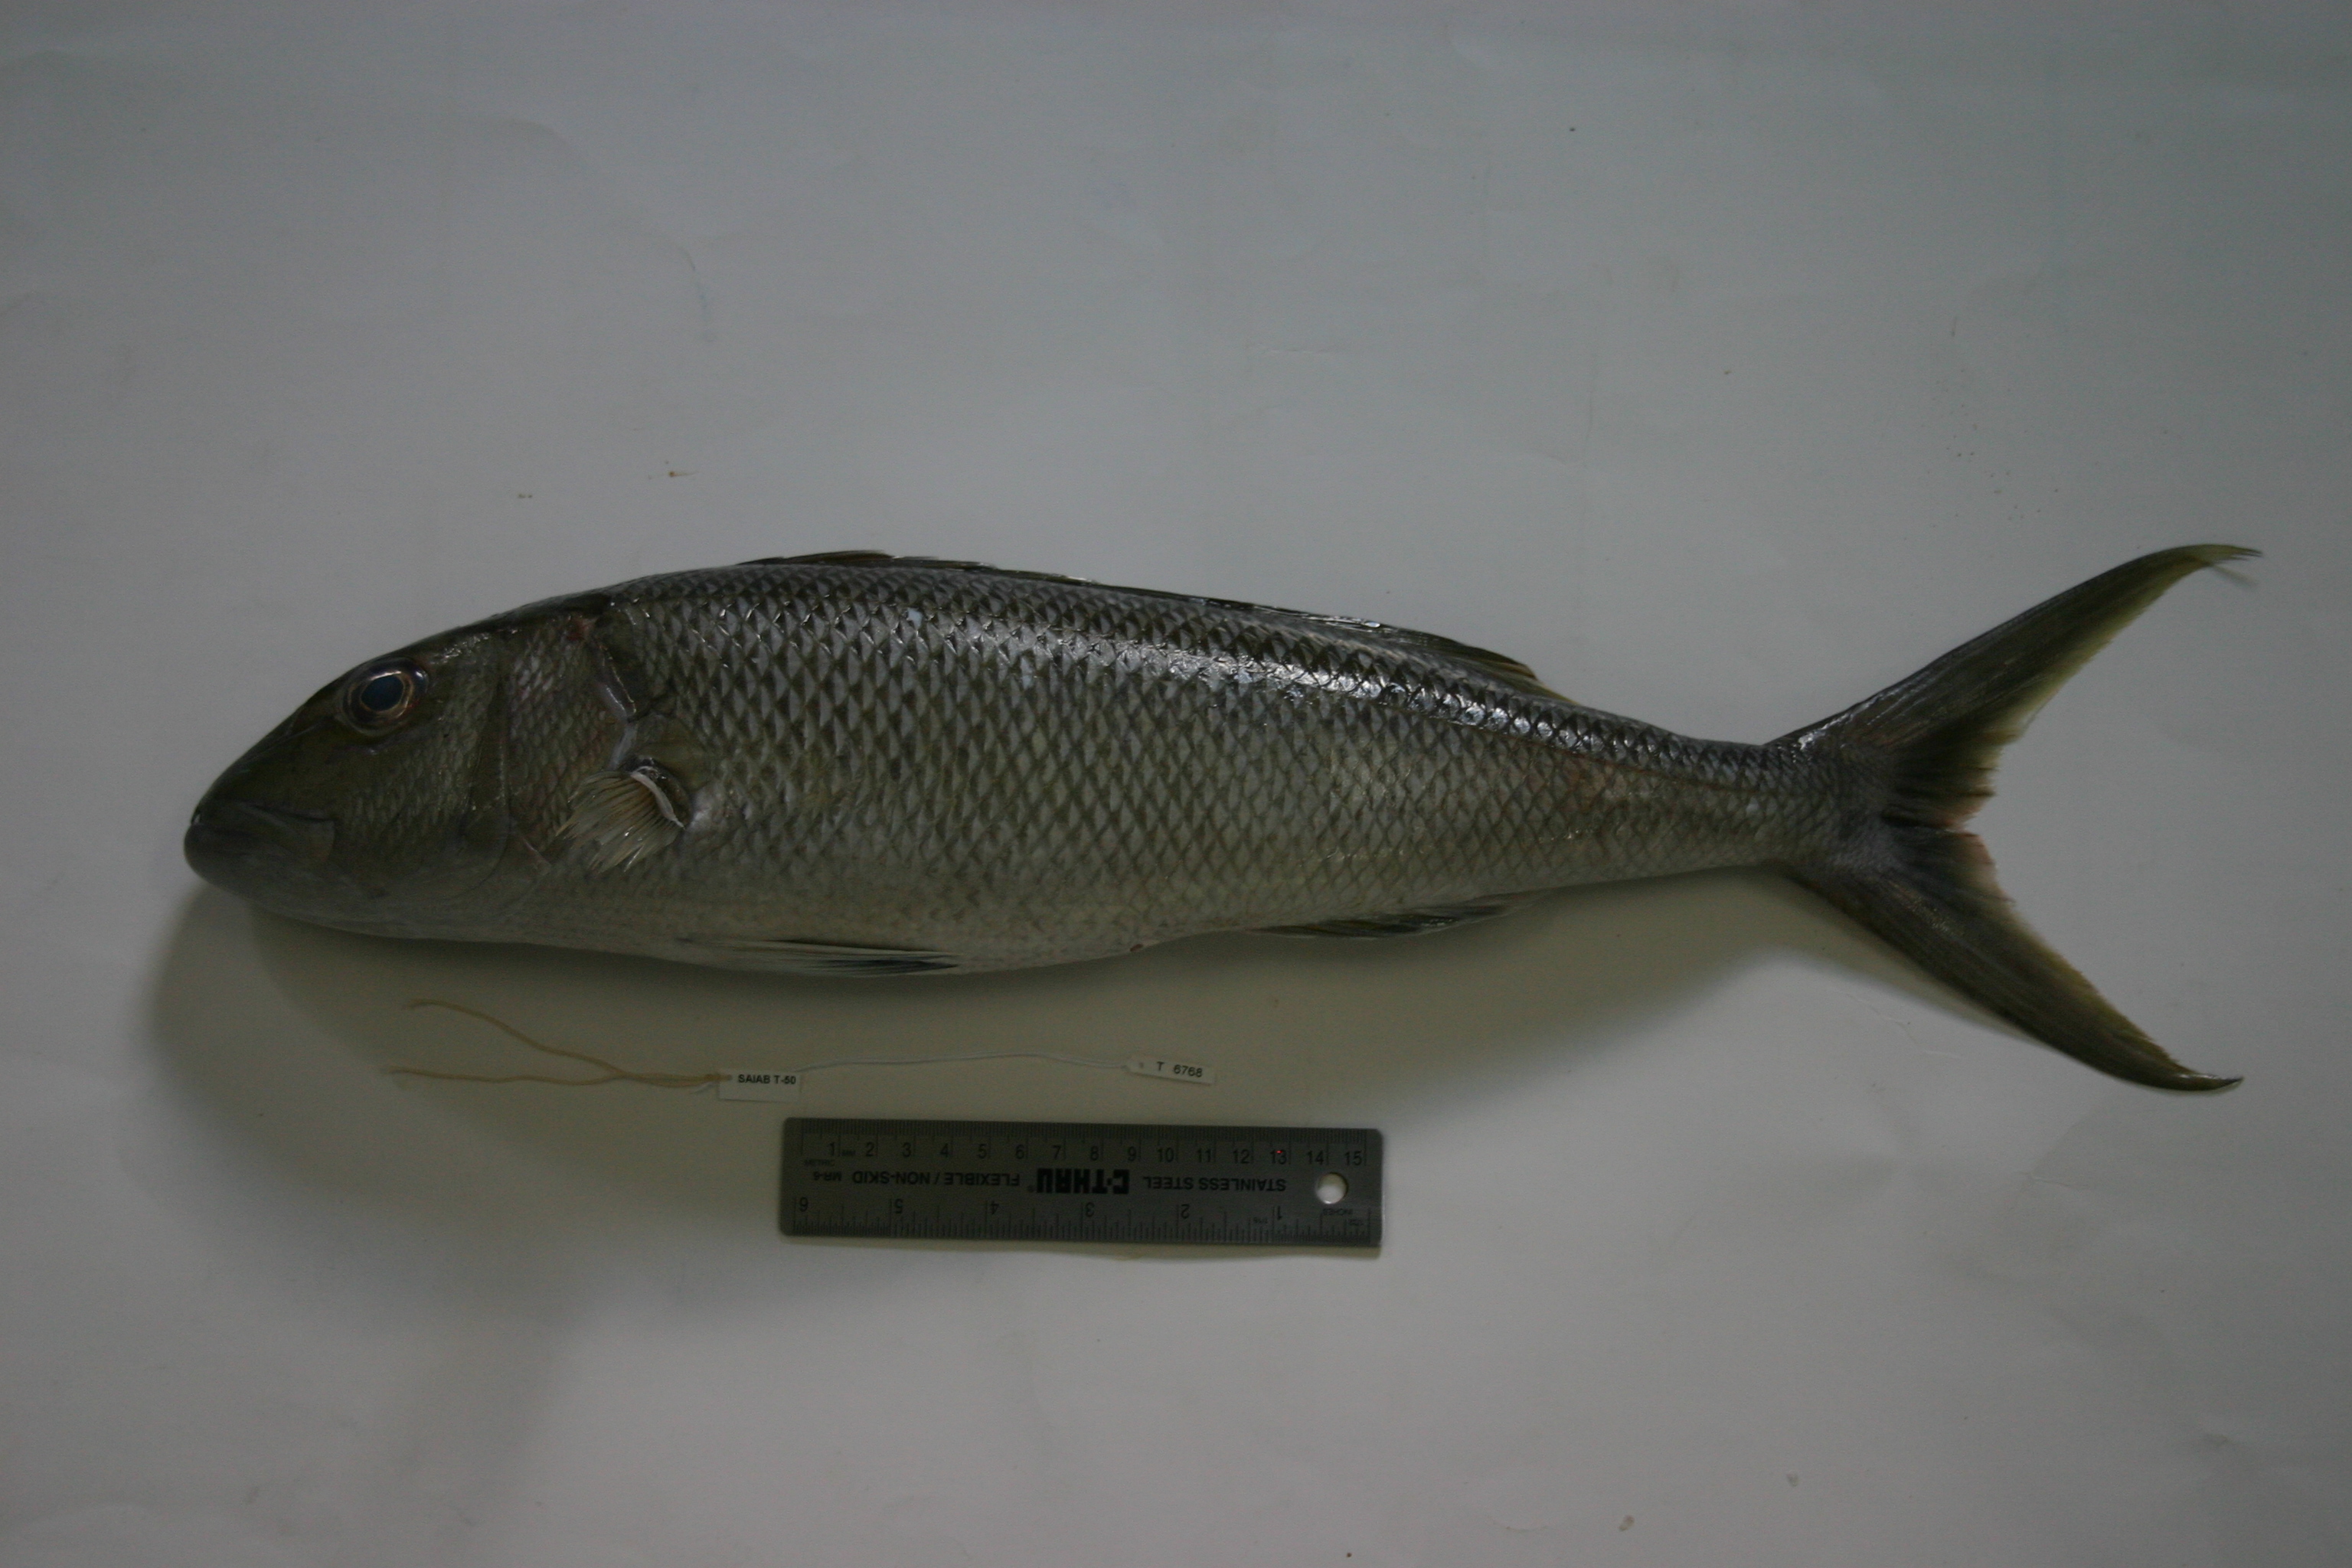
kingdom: Animalia
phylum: Chordata
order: Perciformes
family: Lutjanidae
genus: Aprion
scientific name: Aprion virescens
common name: Green jobfish
